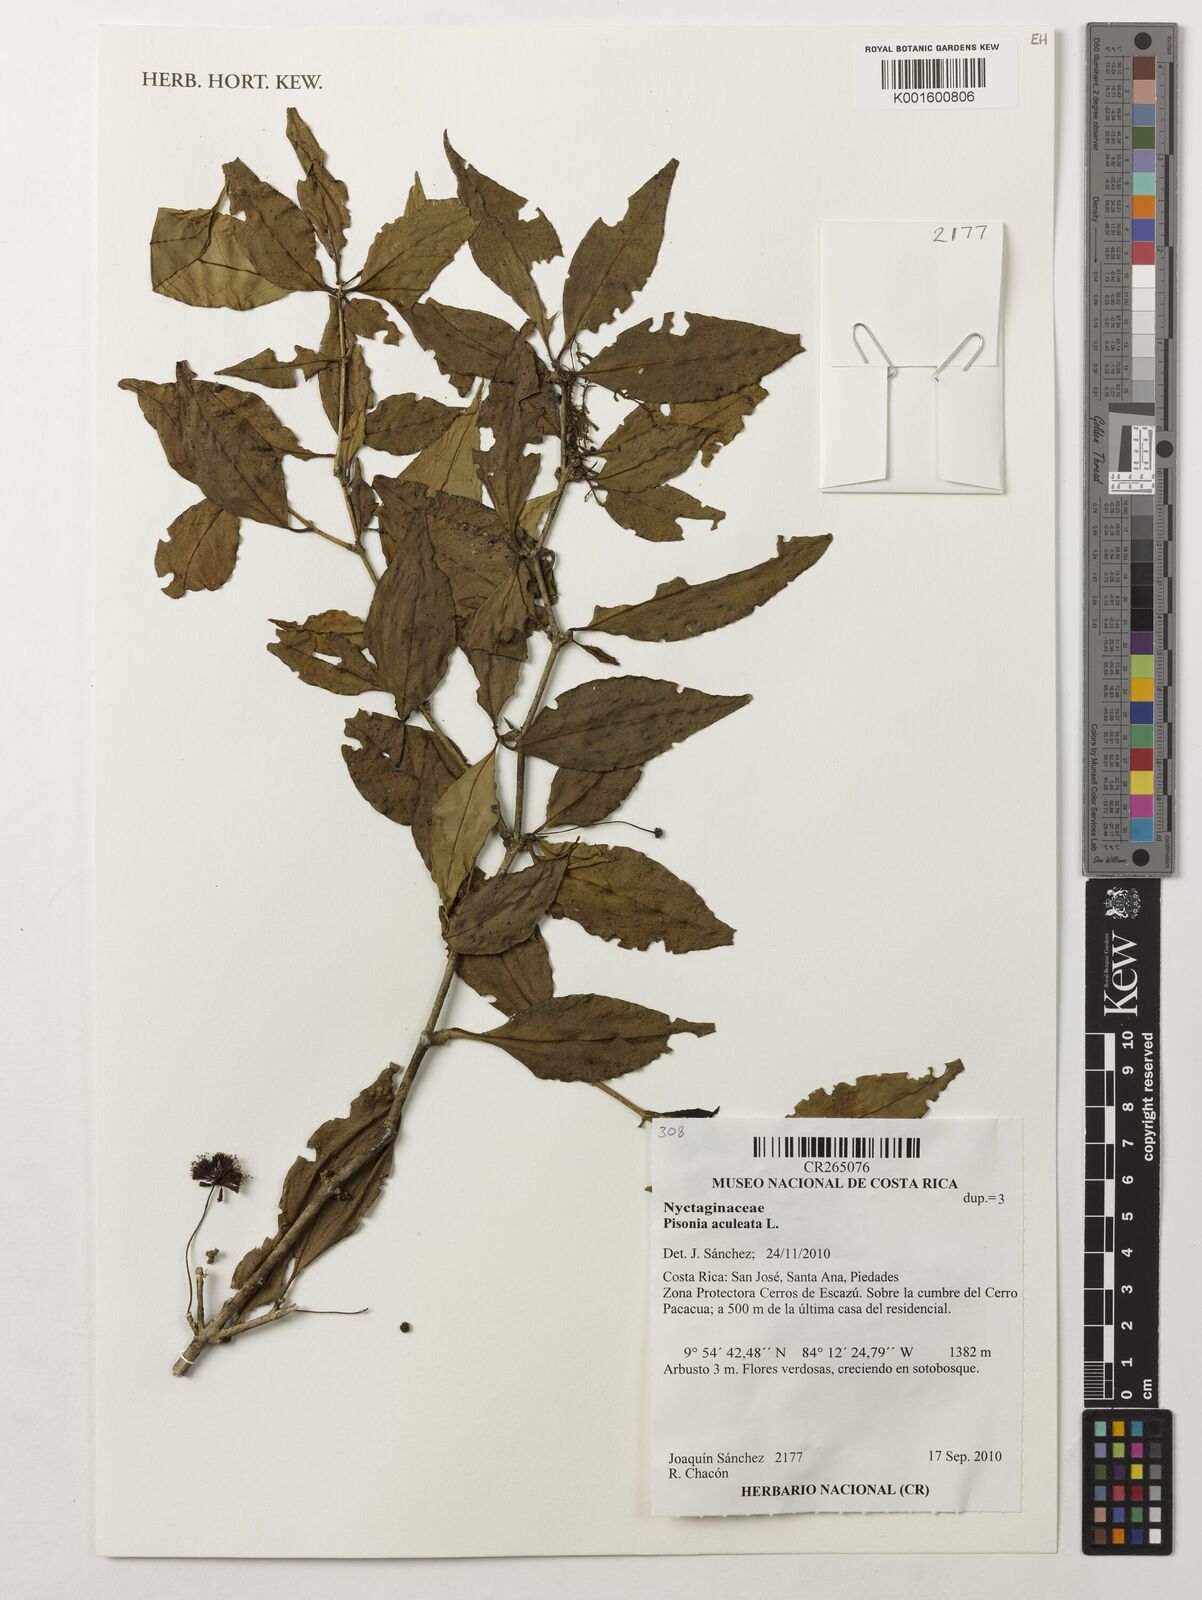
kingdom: Plantae
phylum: Tracheophyta
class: Magnoliopsida
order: Caryophyllales
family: Nyctaginaceae
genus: Pisonia
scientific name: Pisonia aculeata
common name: Cockspur vine
